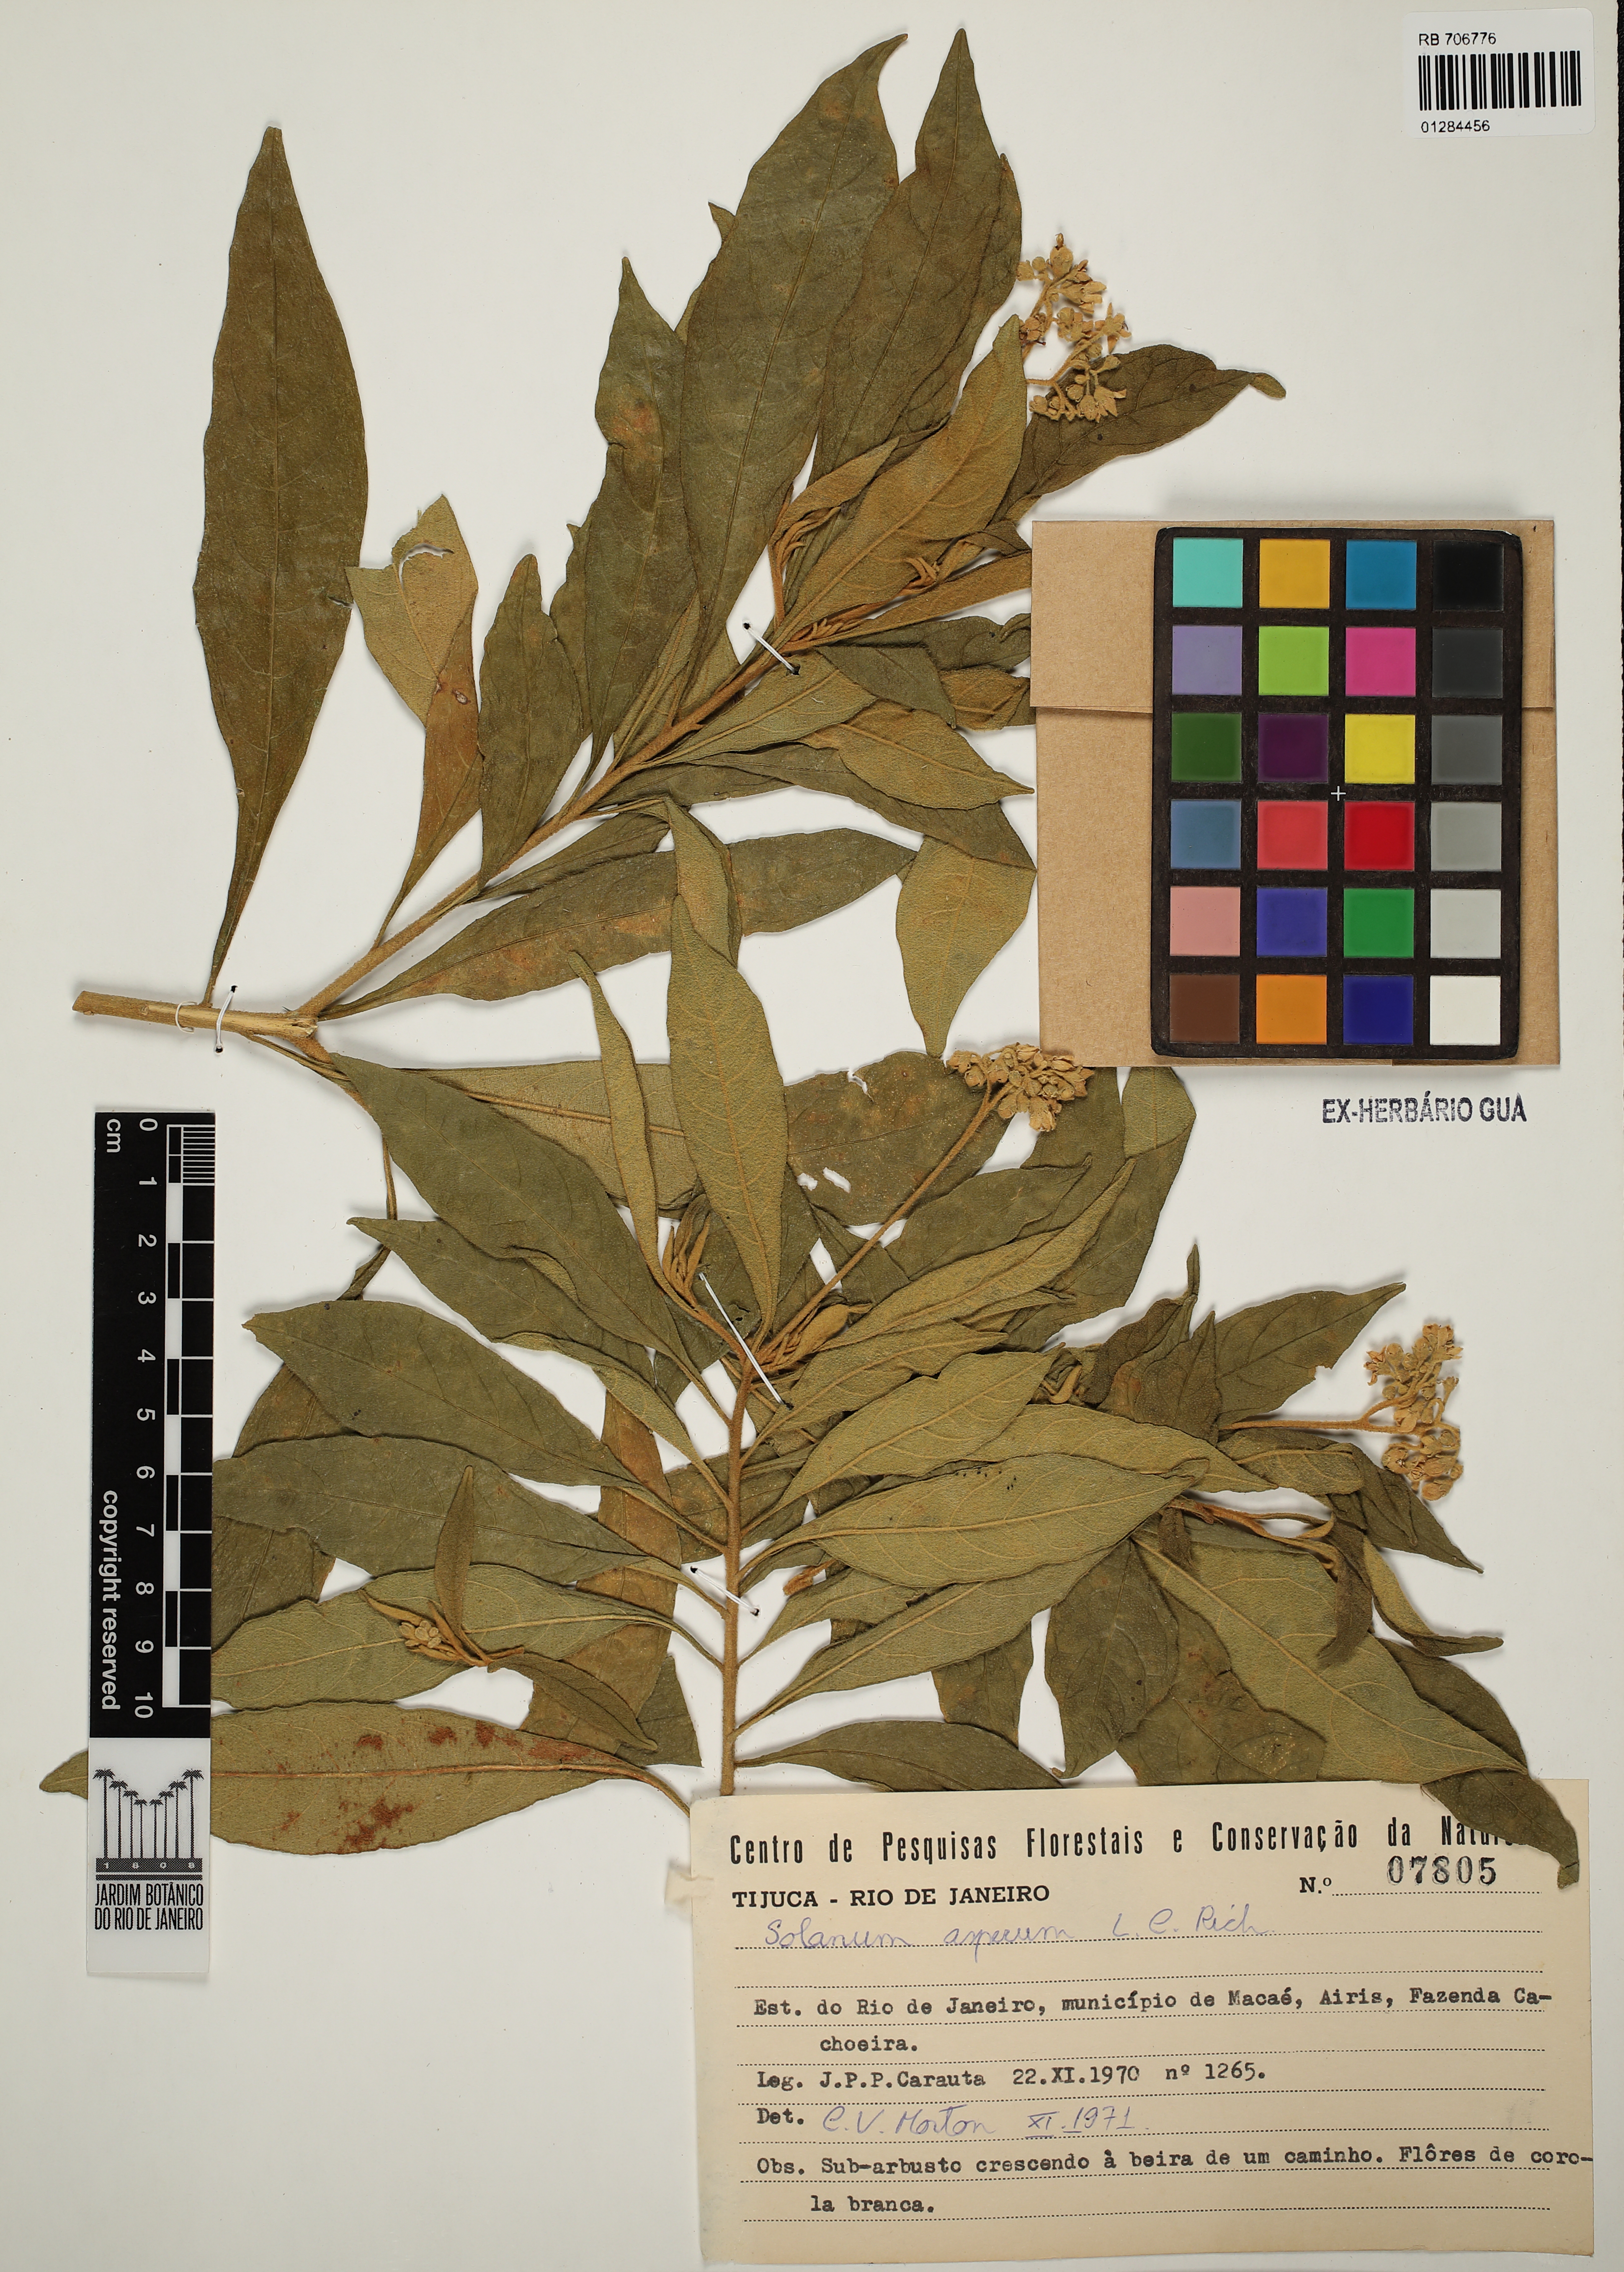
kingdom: Plantae
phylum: Tracheophyta
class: Magnoliopsida
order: Solanales
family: Solanaceae
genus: Solanum
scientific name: Solanum asperum
